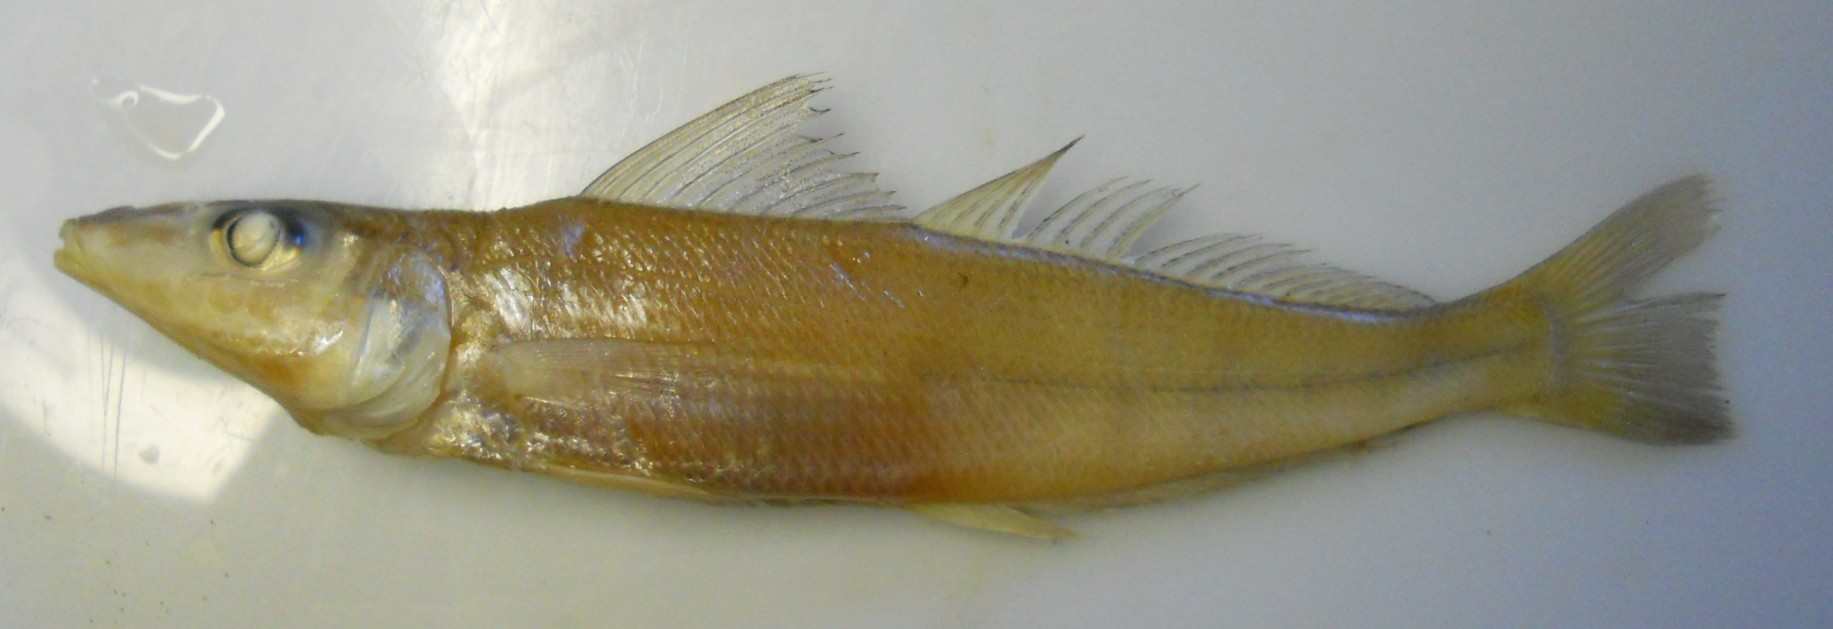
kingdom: Animalia
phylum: Chordata
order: Perciformes
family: Sillaginidae
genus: Sillago
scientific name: Sillago sihama
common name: Silver sillago
